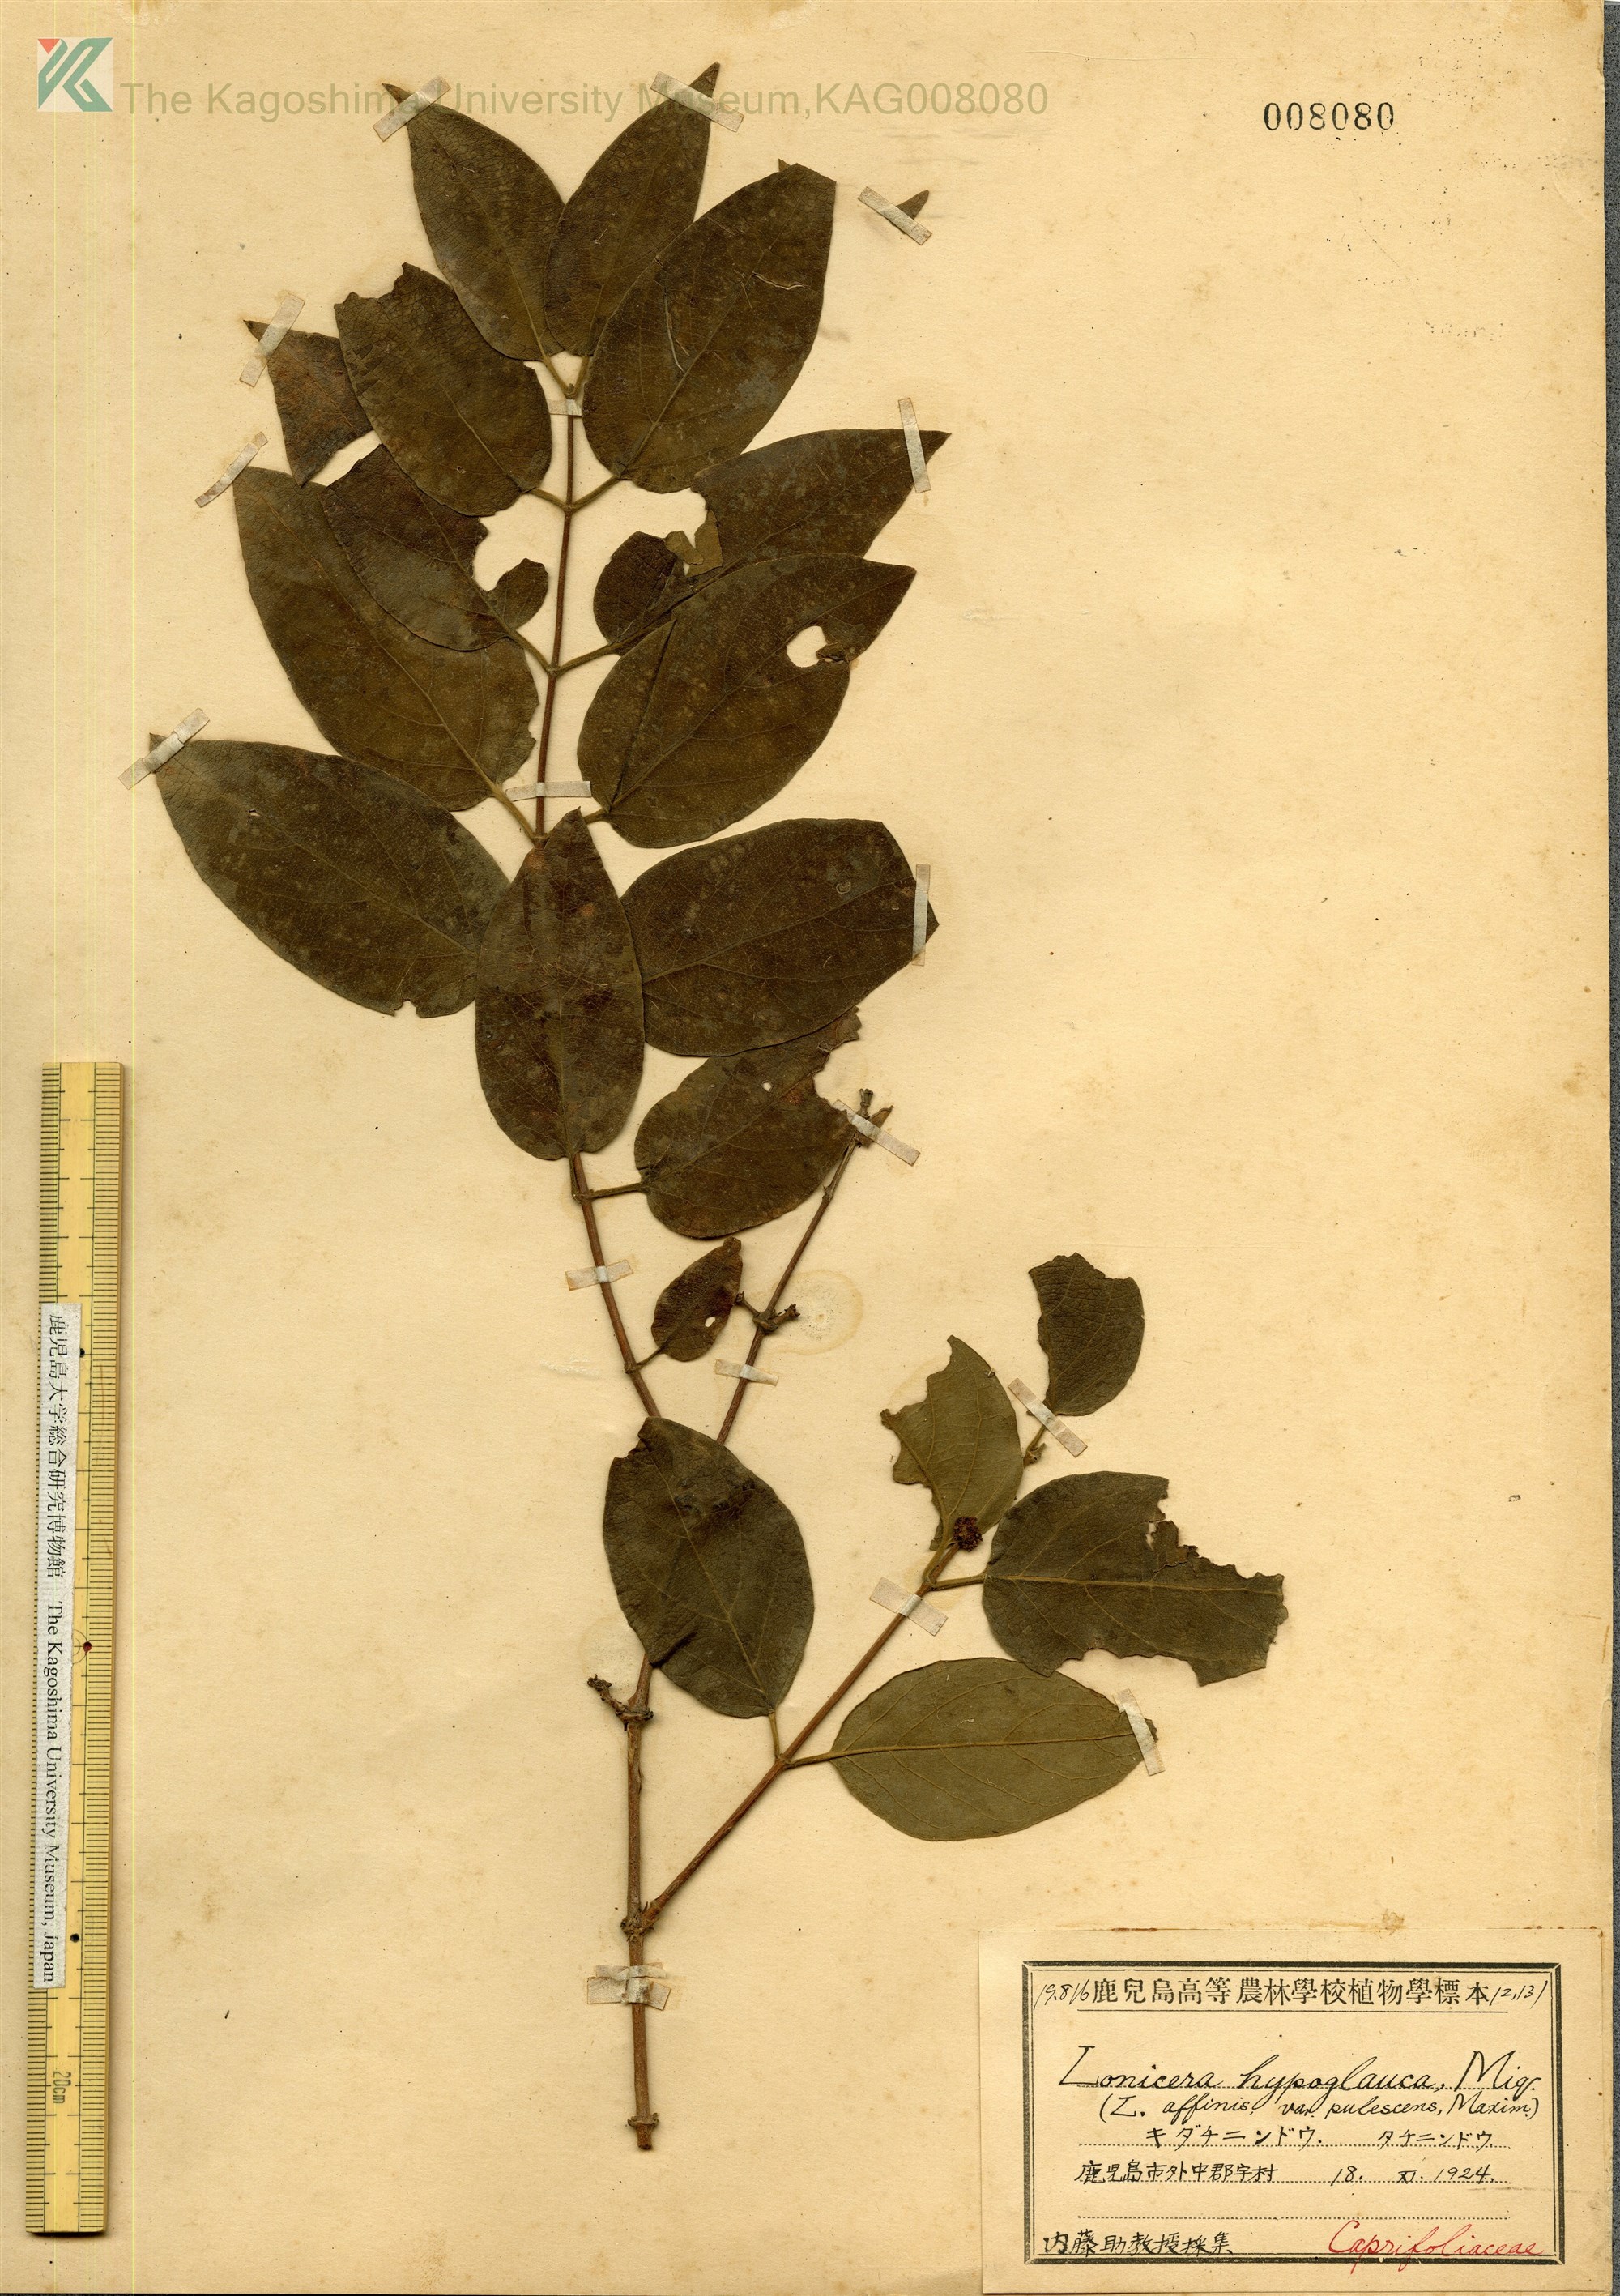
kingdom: Plantae
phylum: Tracheophyta
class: Magnoliopsida
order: Dipsacales
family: Caprifoliaceae
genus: Lonicera
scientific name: Lonicera hypoglauca
